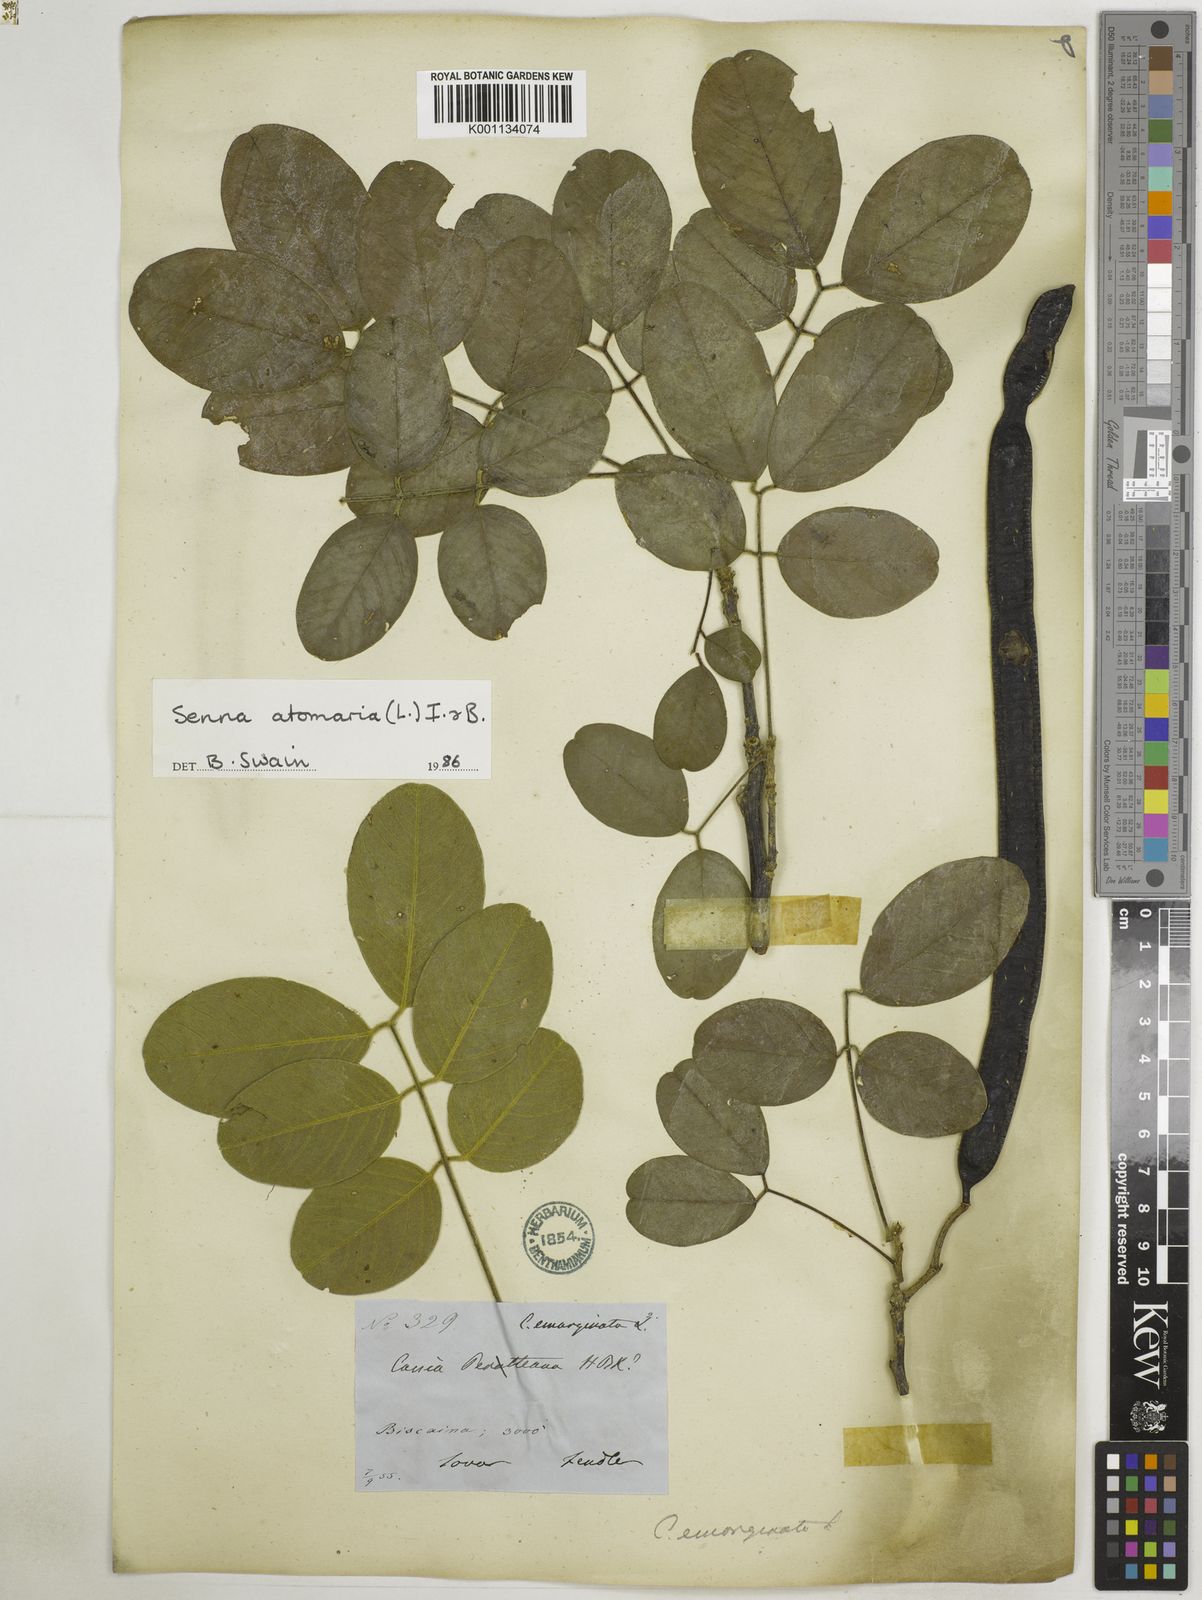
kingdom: Plantae
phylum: Tracheophyta
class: Magnoliopsida
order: Fabales
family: Fabaceae
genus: Senna
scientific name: Senna atomaria
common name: Flor de san jose
